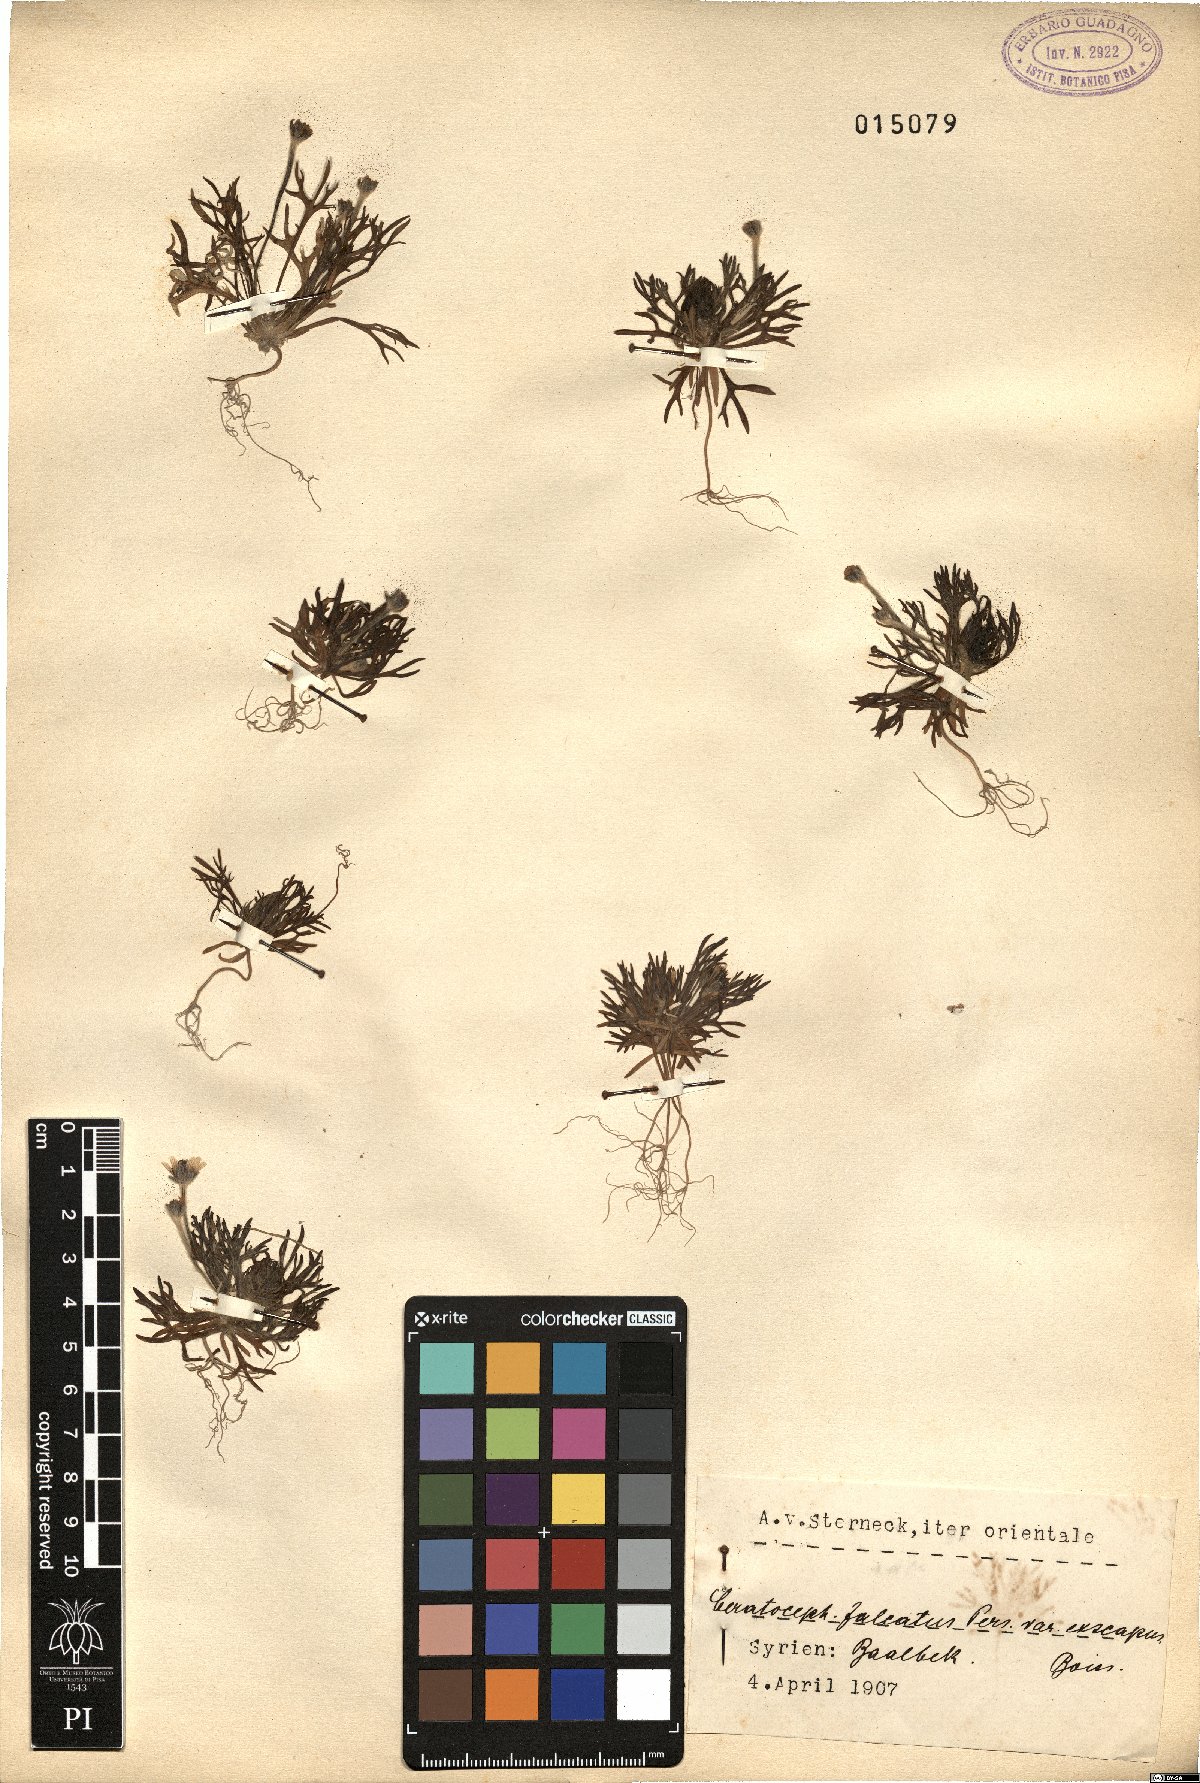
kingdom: Plantae
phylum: Tracheophyta
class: Magnoliopsida
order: Ranunculales
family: Ranunculaceae
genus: Ceratocephala
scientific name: Ceratocephala falcata
